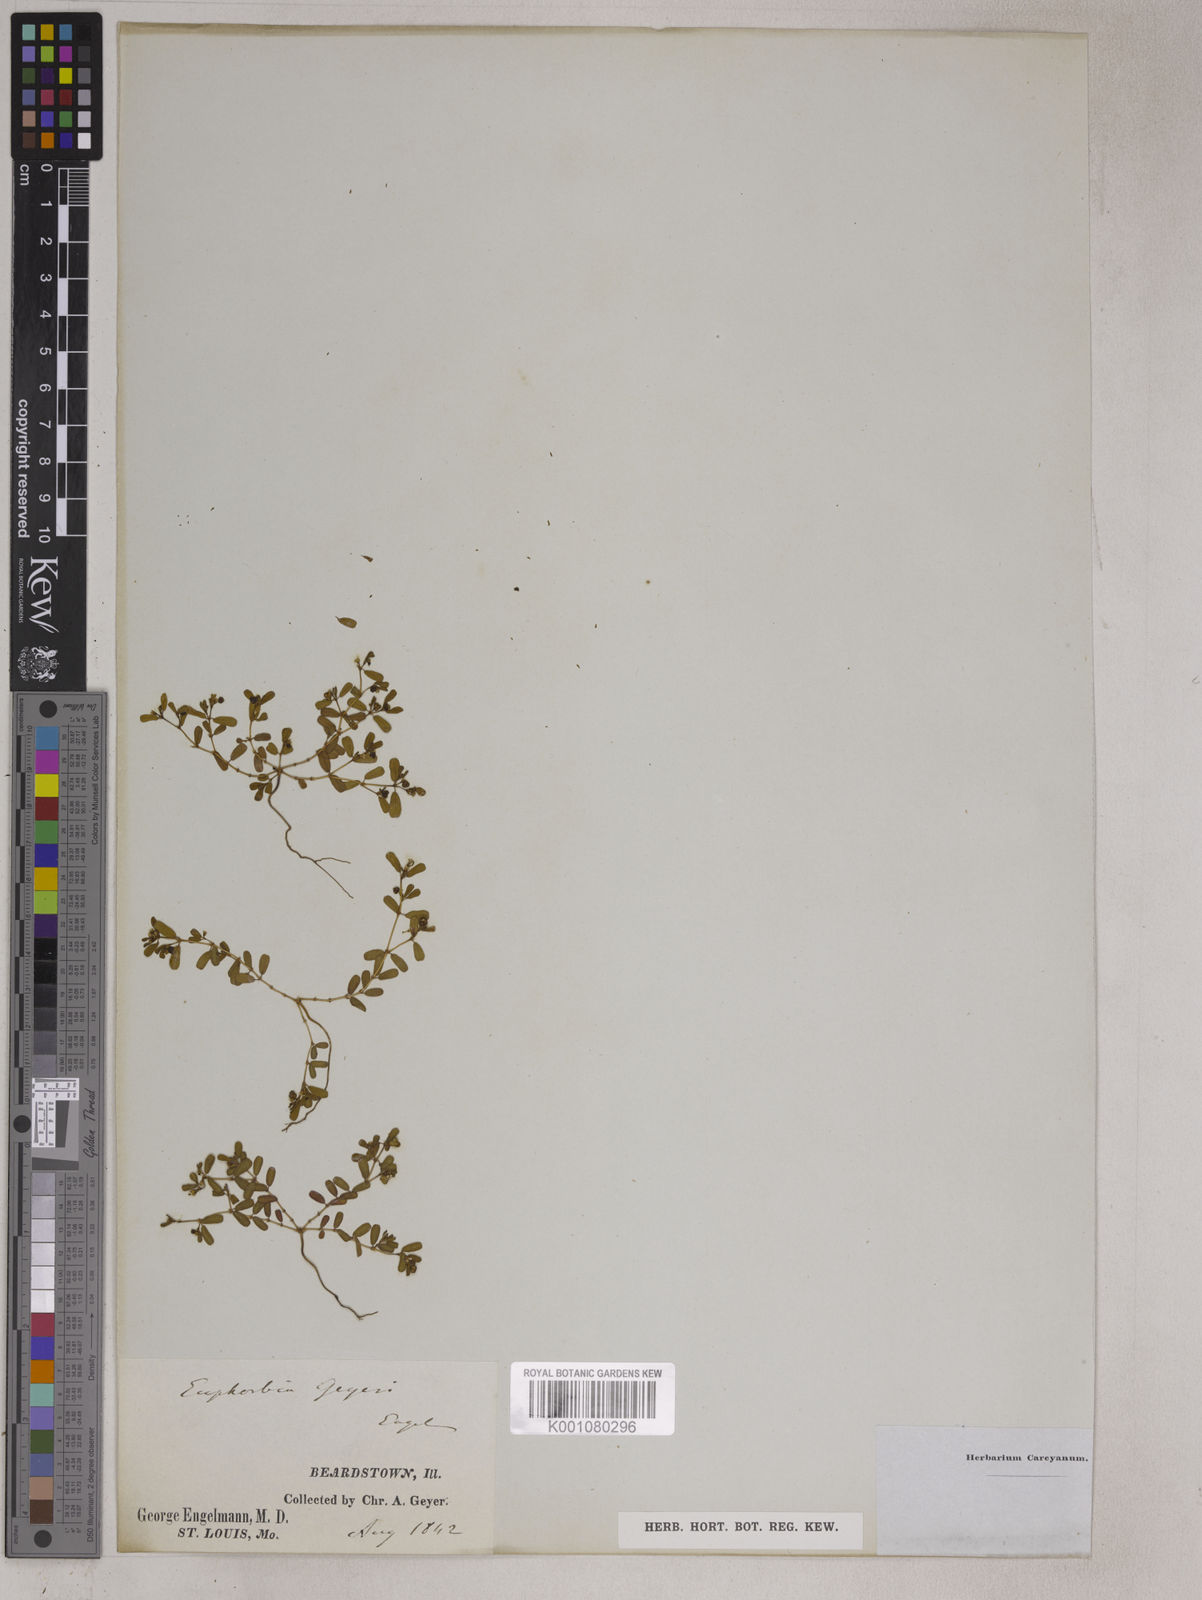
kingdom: Plantae
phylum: Tracheophyta
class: Magnoliopsida
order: Malpighiales
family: Euphorbiaceae
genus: Euphorbia
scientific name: Euphorbia geyeri
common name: Geyer's spurge
